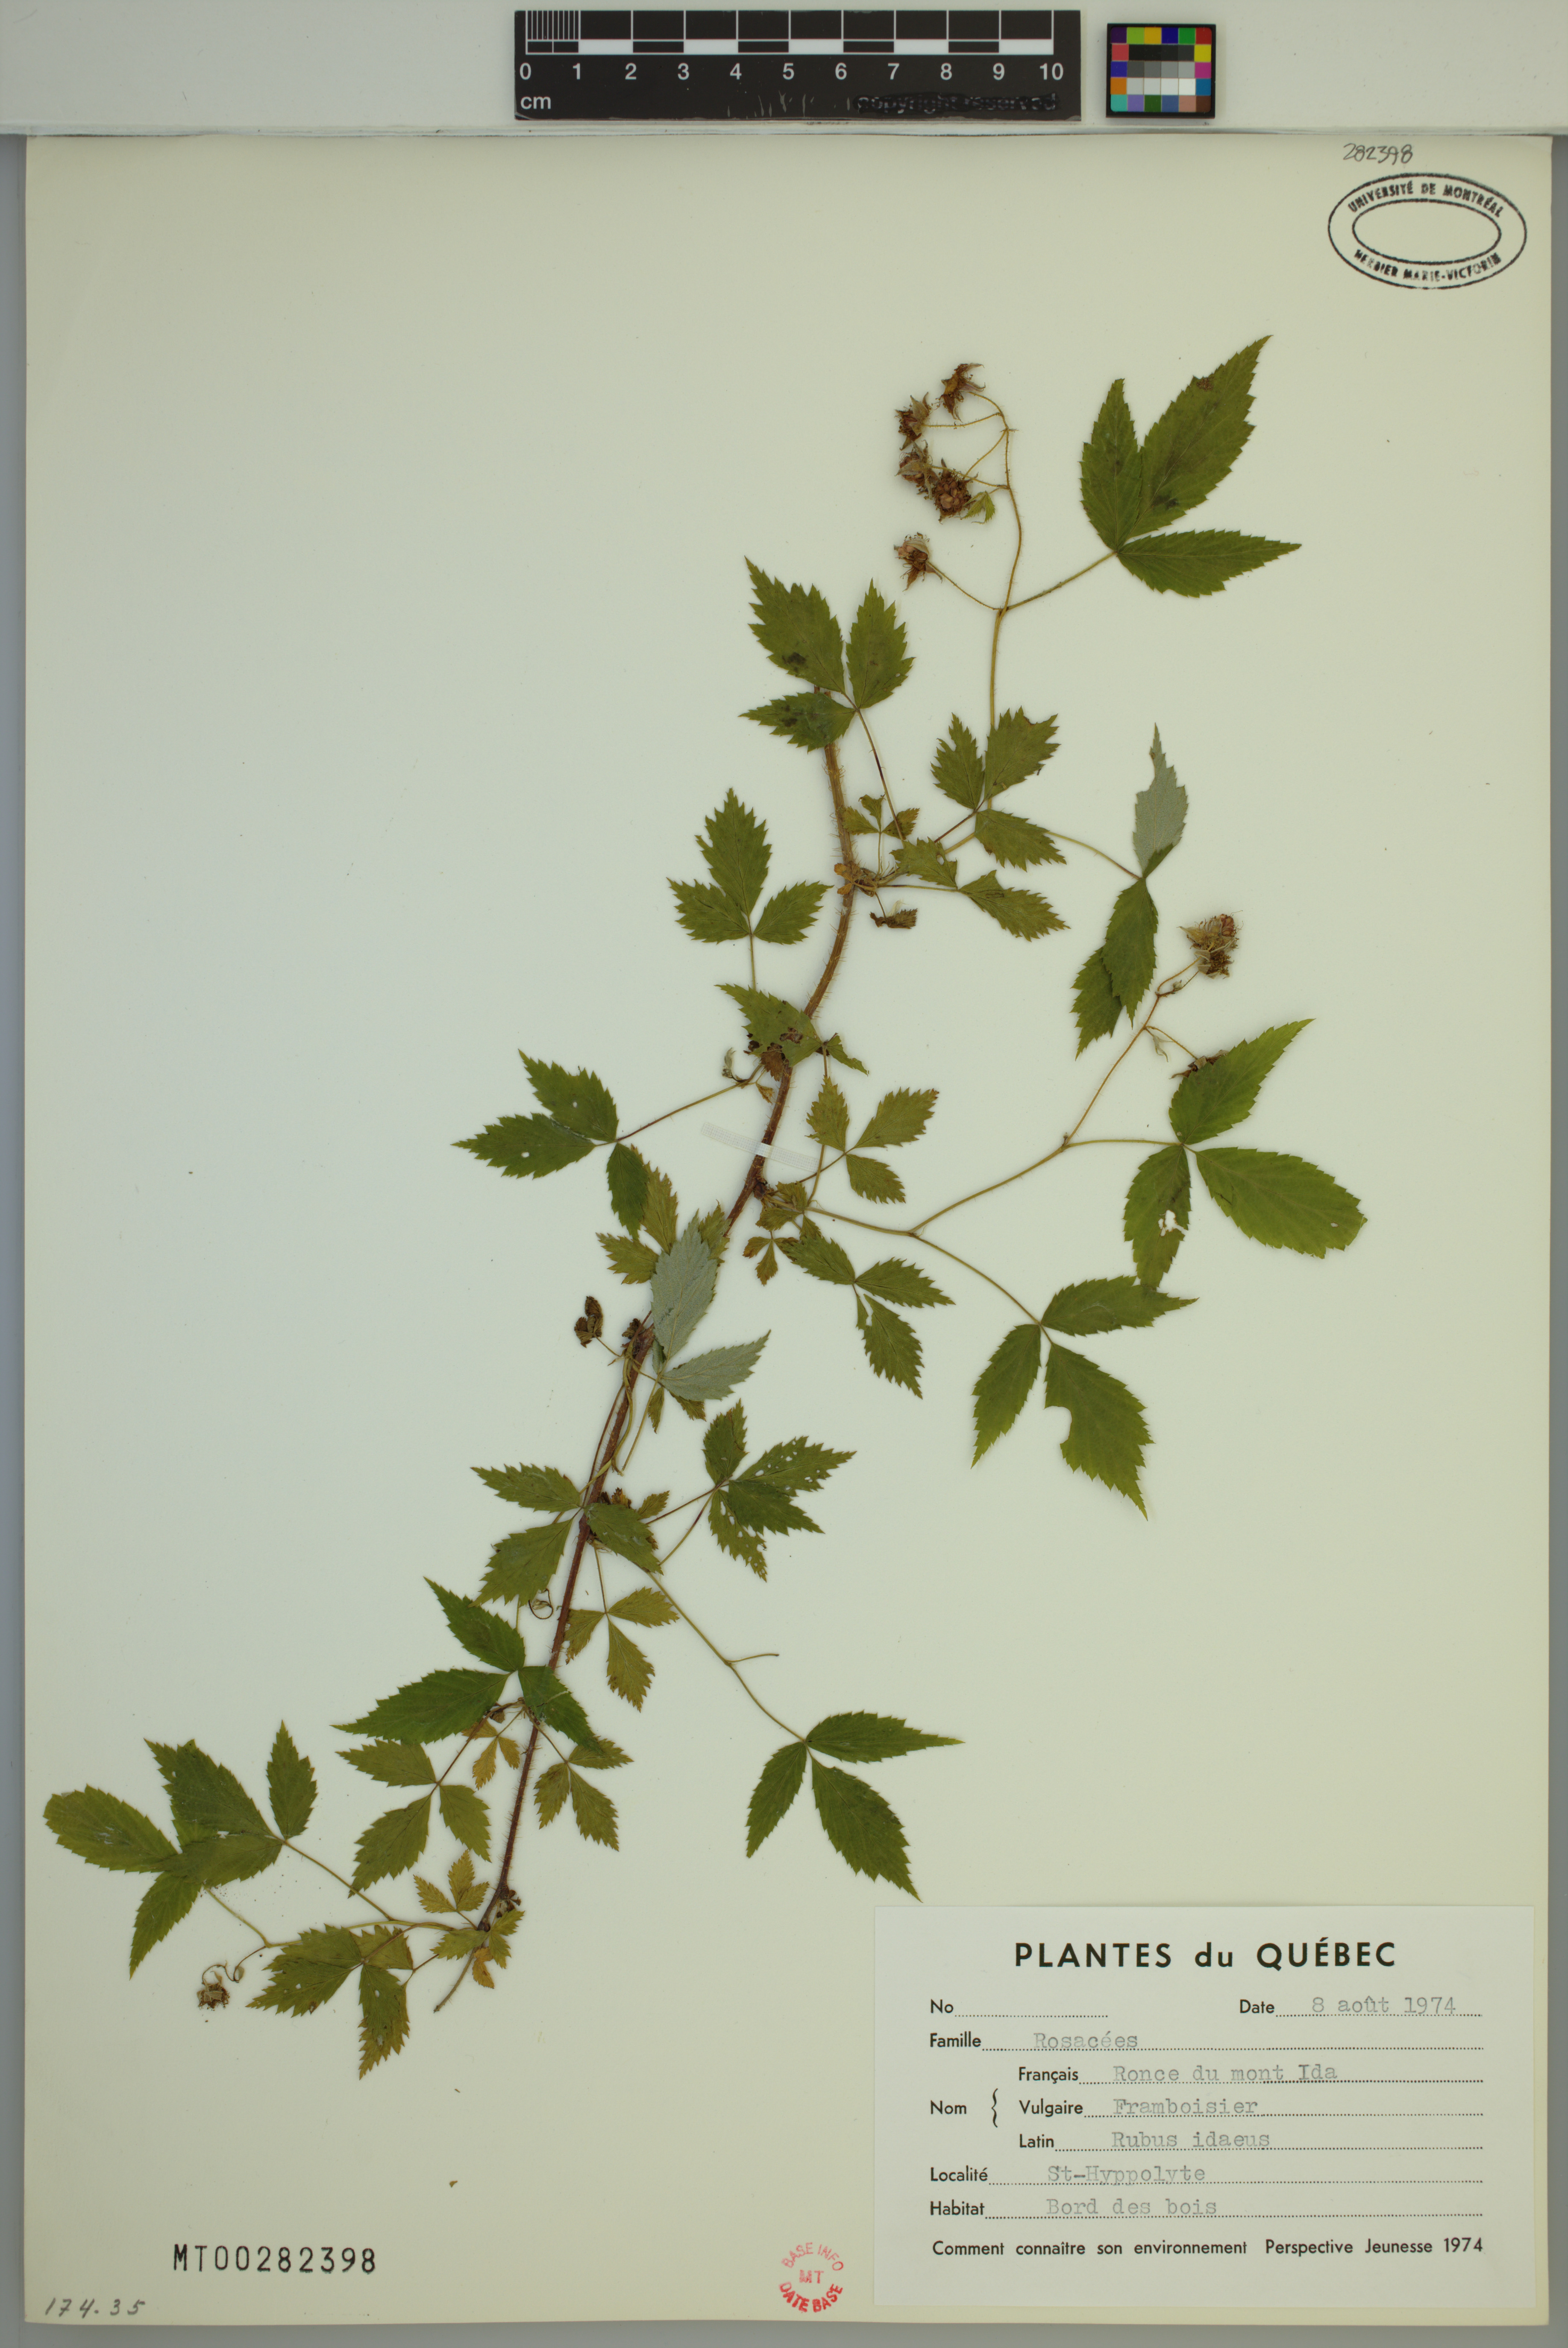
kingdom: Plantae
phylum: Tracheophyta
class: Magnoliopsida
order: Rosales
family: Rosaceae
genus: Rubus
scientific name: Rubus idaeus
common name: Raspberry
